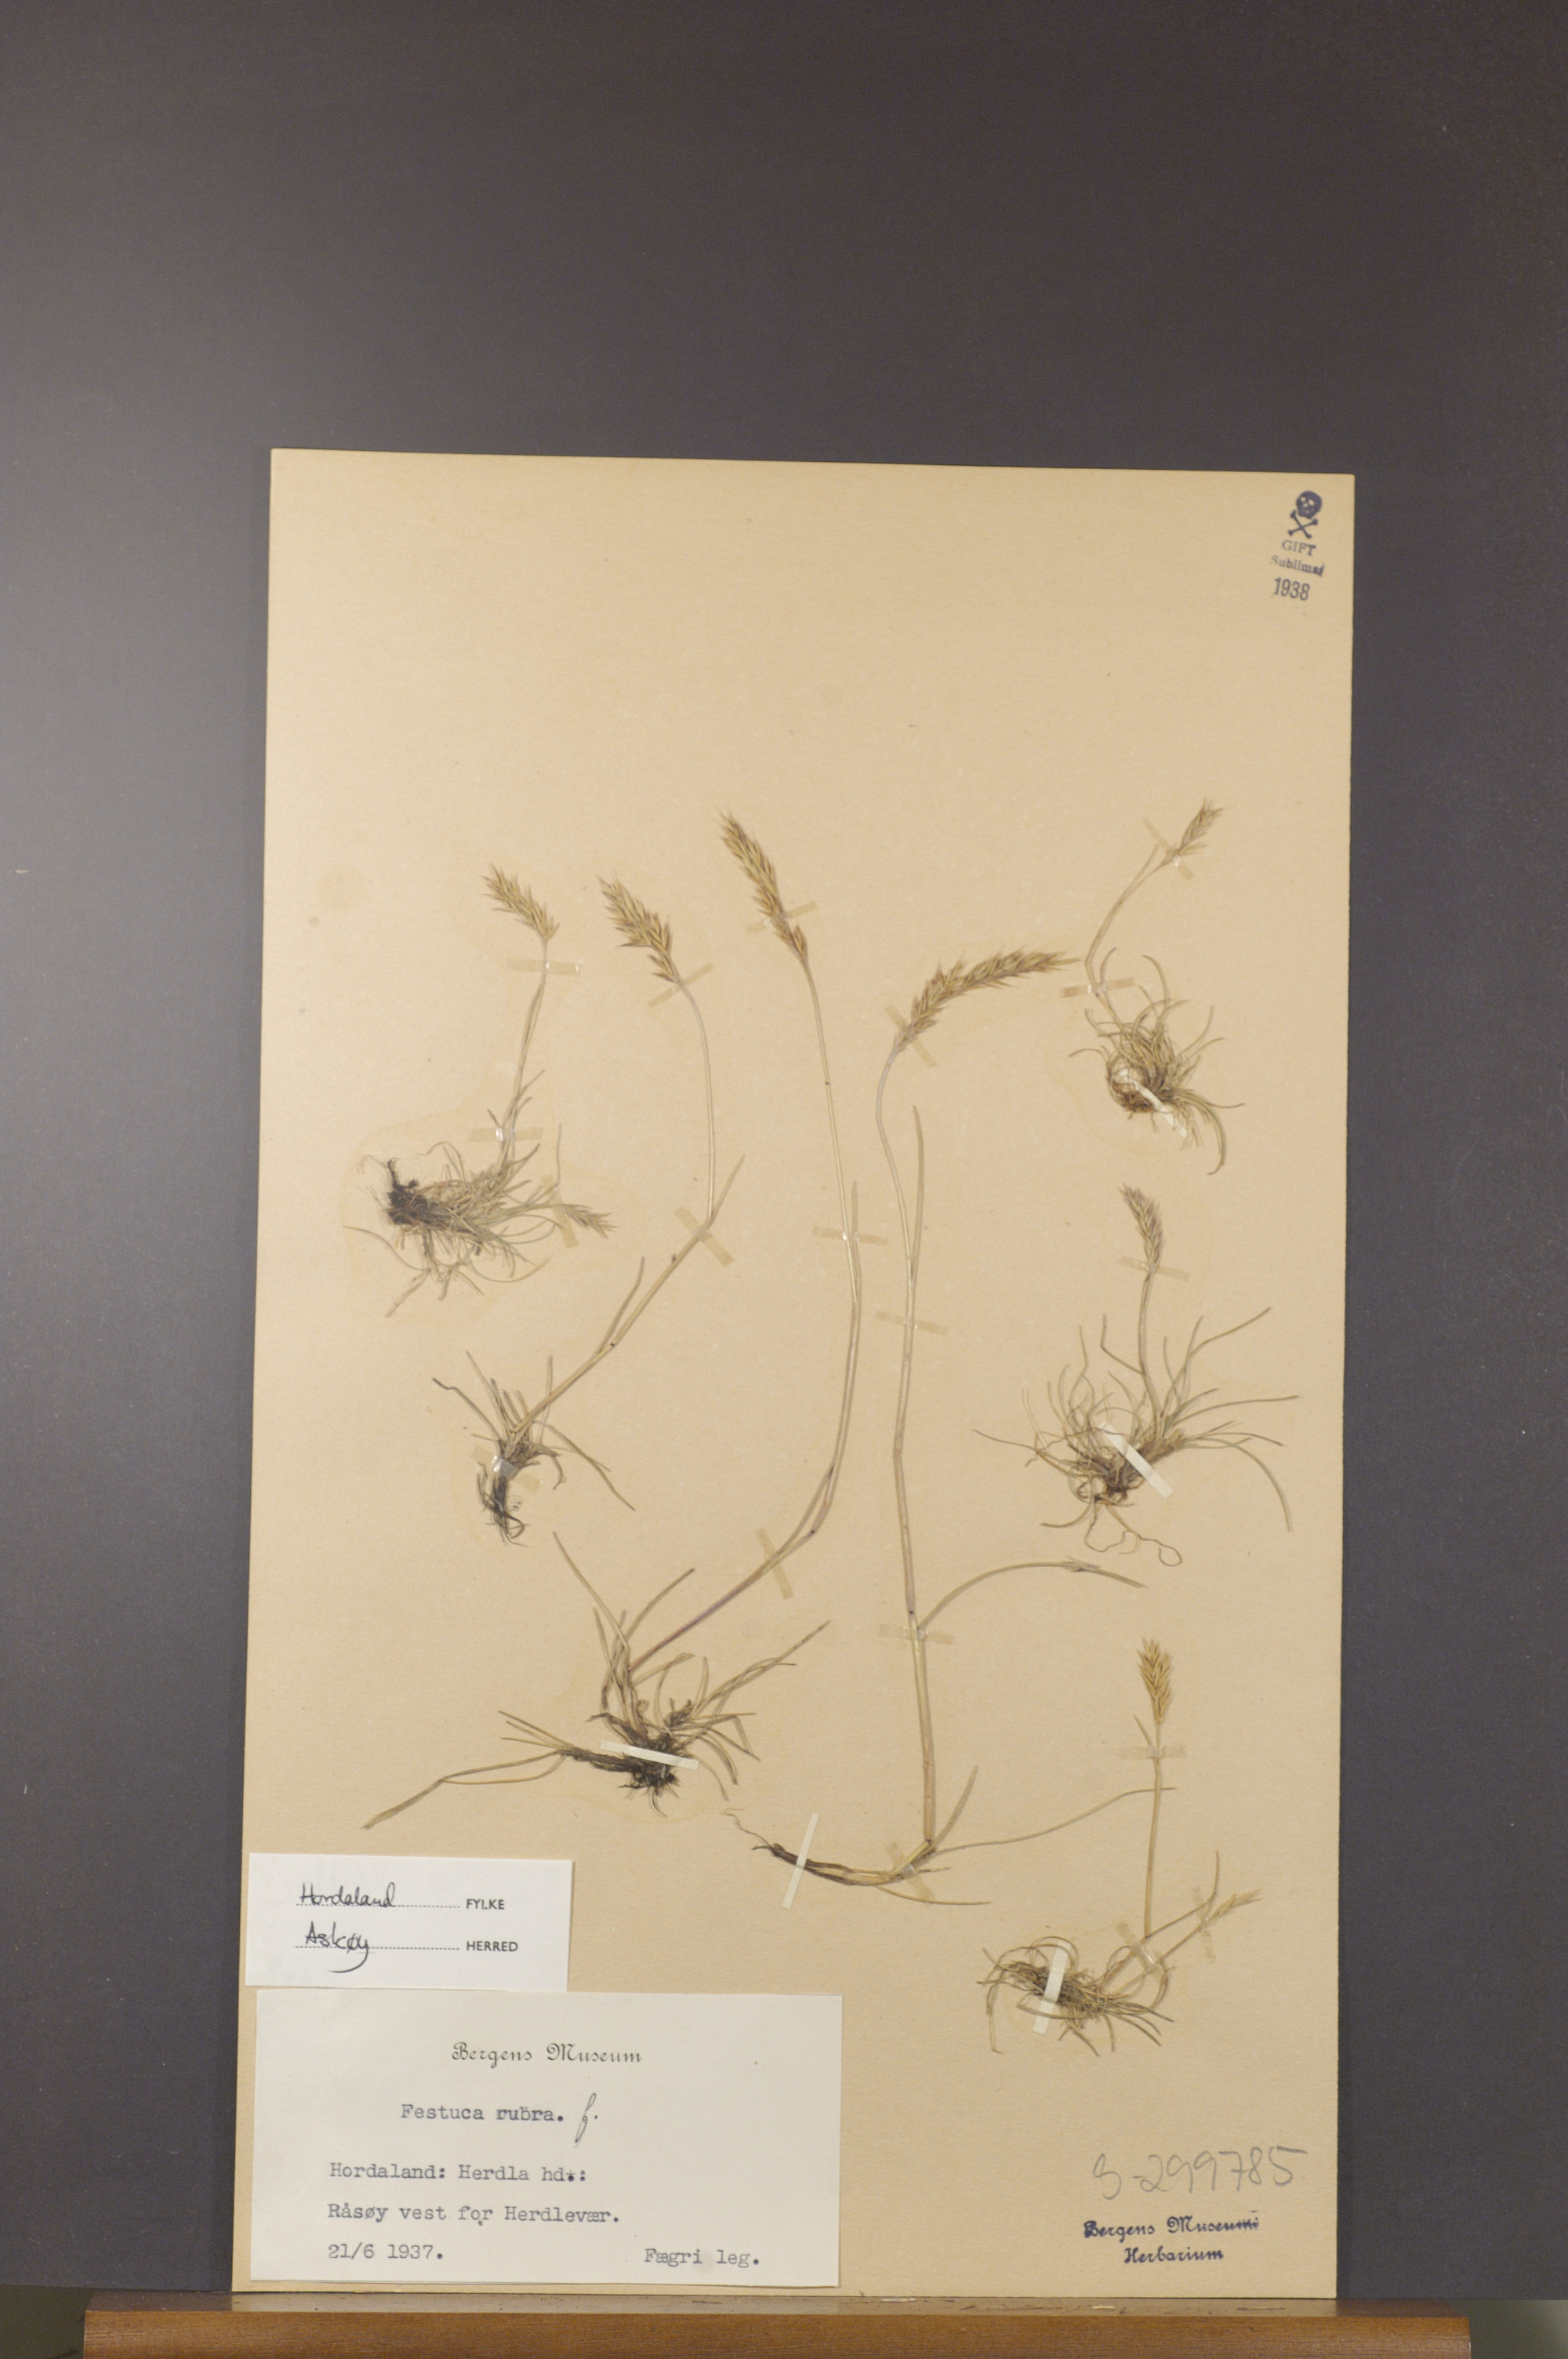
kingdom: Plantae
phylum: Tracheophyta
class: Liliopsida
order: Poales
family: Poaceae
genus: Festuca
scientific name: Festuca rubra
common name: Red fescue
